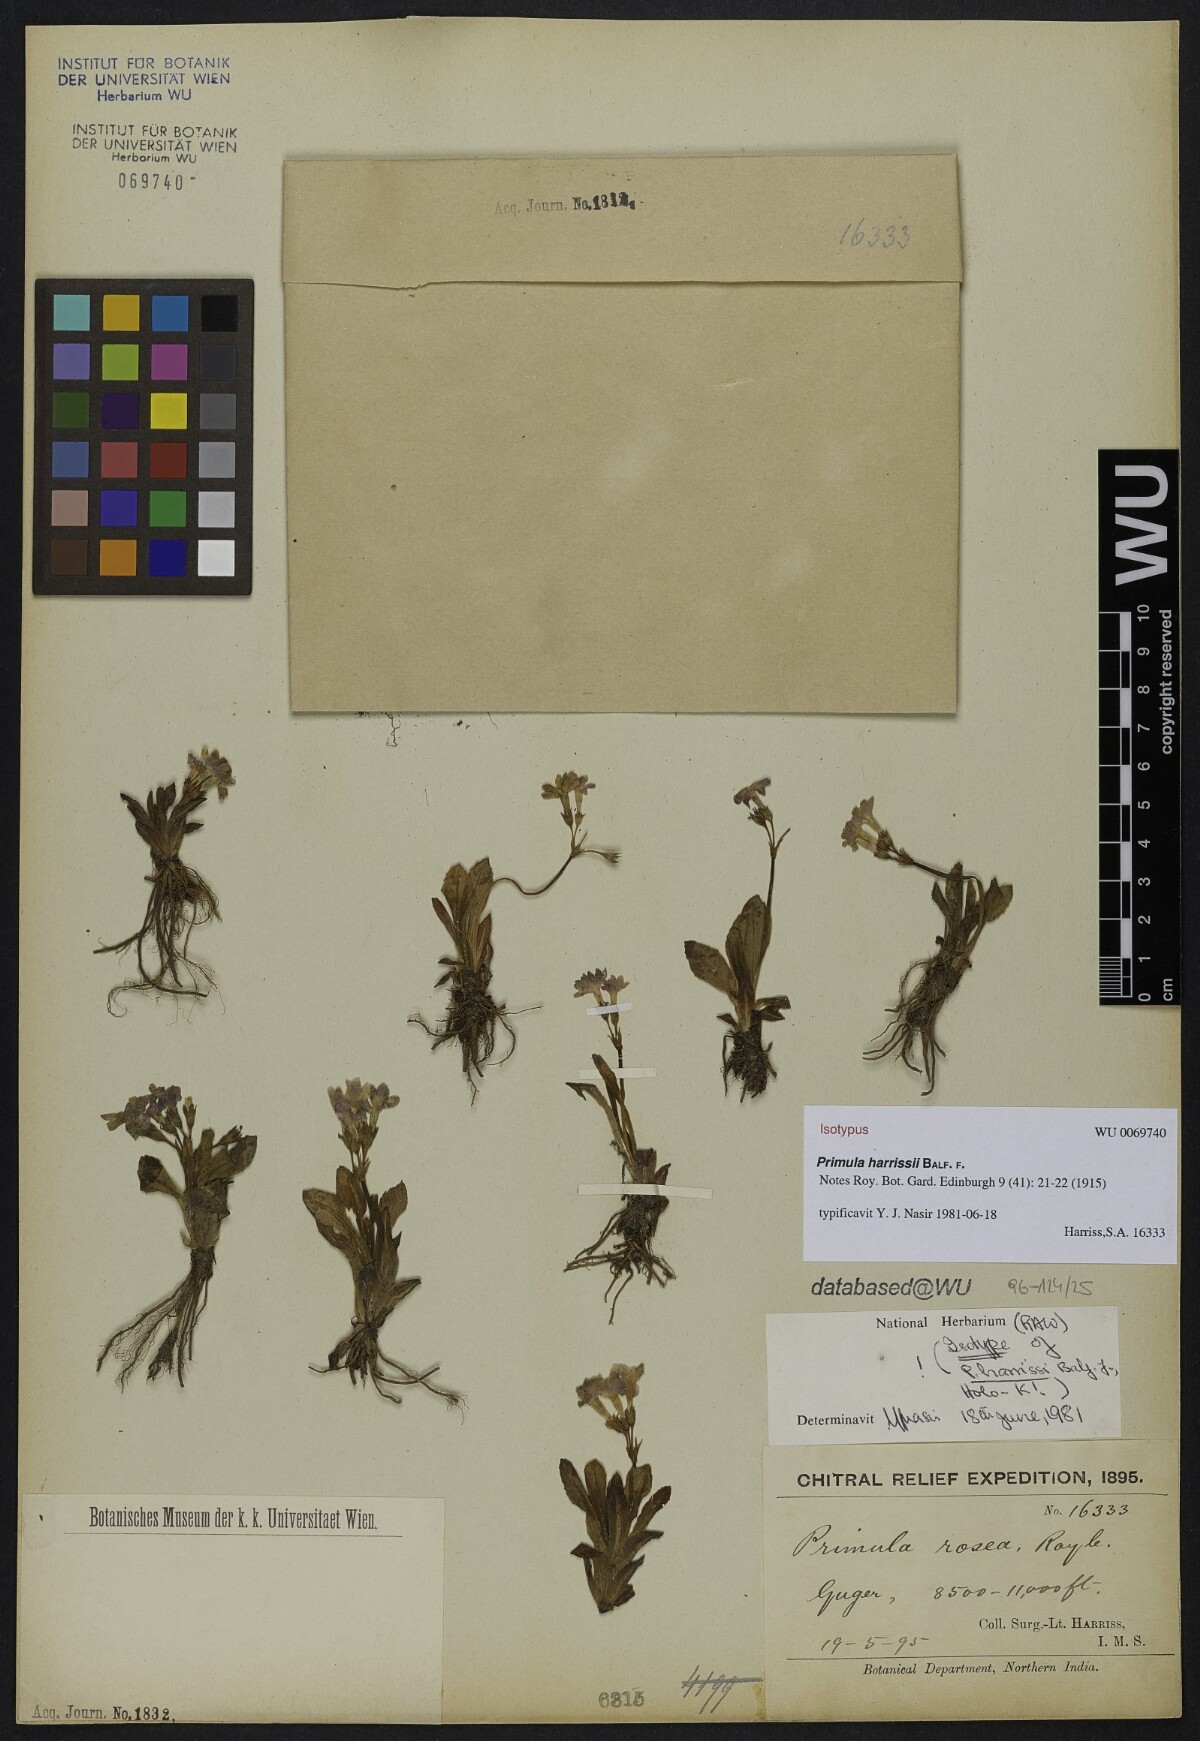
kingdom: Plantae
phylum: Tracheophyta
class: Magnoliopsida
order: Ericales
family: Primulaceae
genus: Primula
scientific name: Primula warshenewskiana
